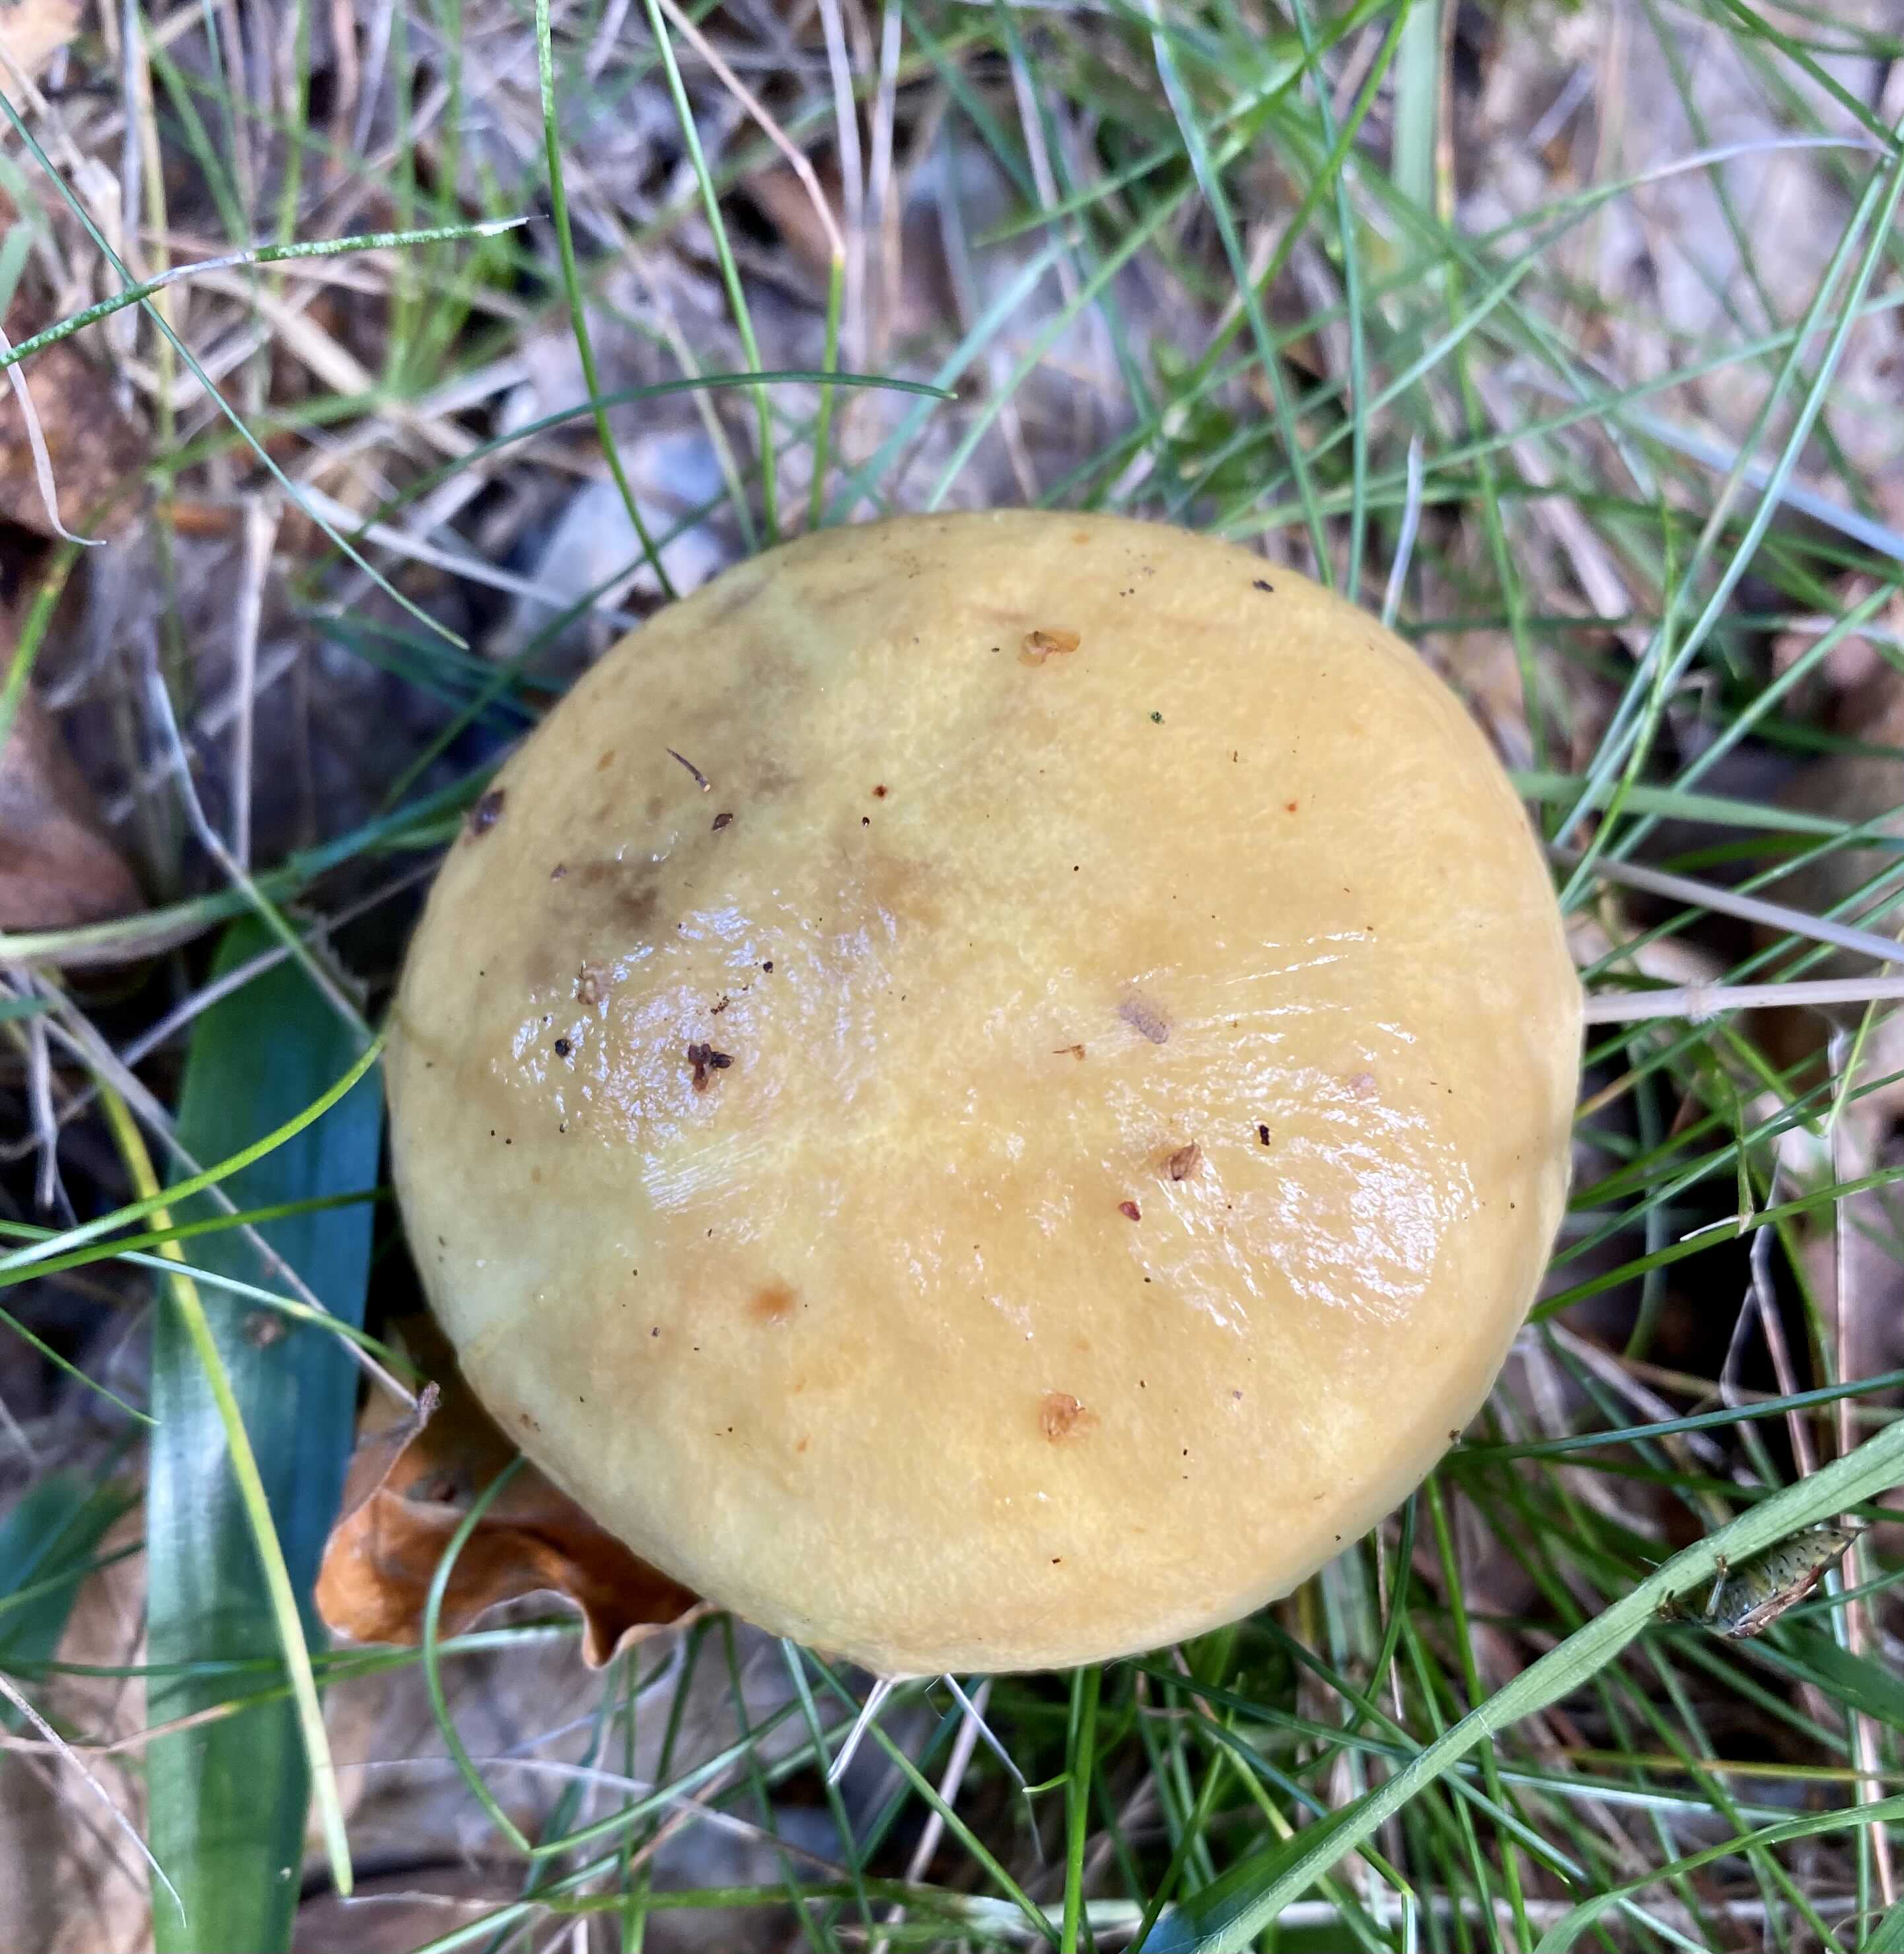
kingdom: Fungi
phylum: Basidiomycota
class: Agaricomycetes
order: Boletales
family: Suillaceae
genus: Suillus
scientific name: Suillus grevillei
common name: lærke-slimrørhat
